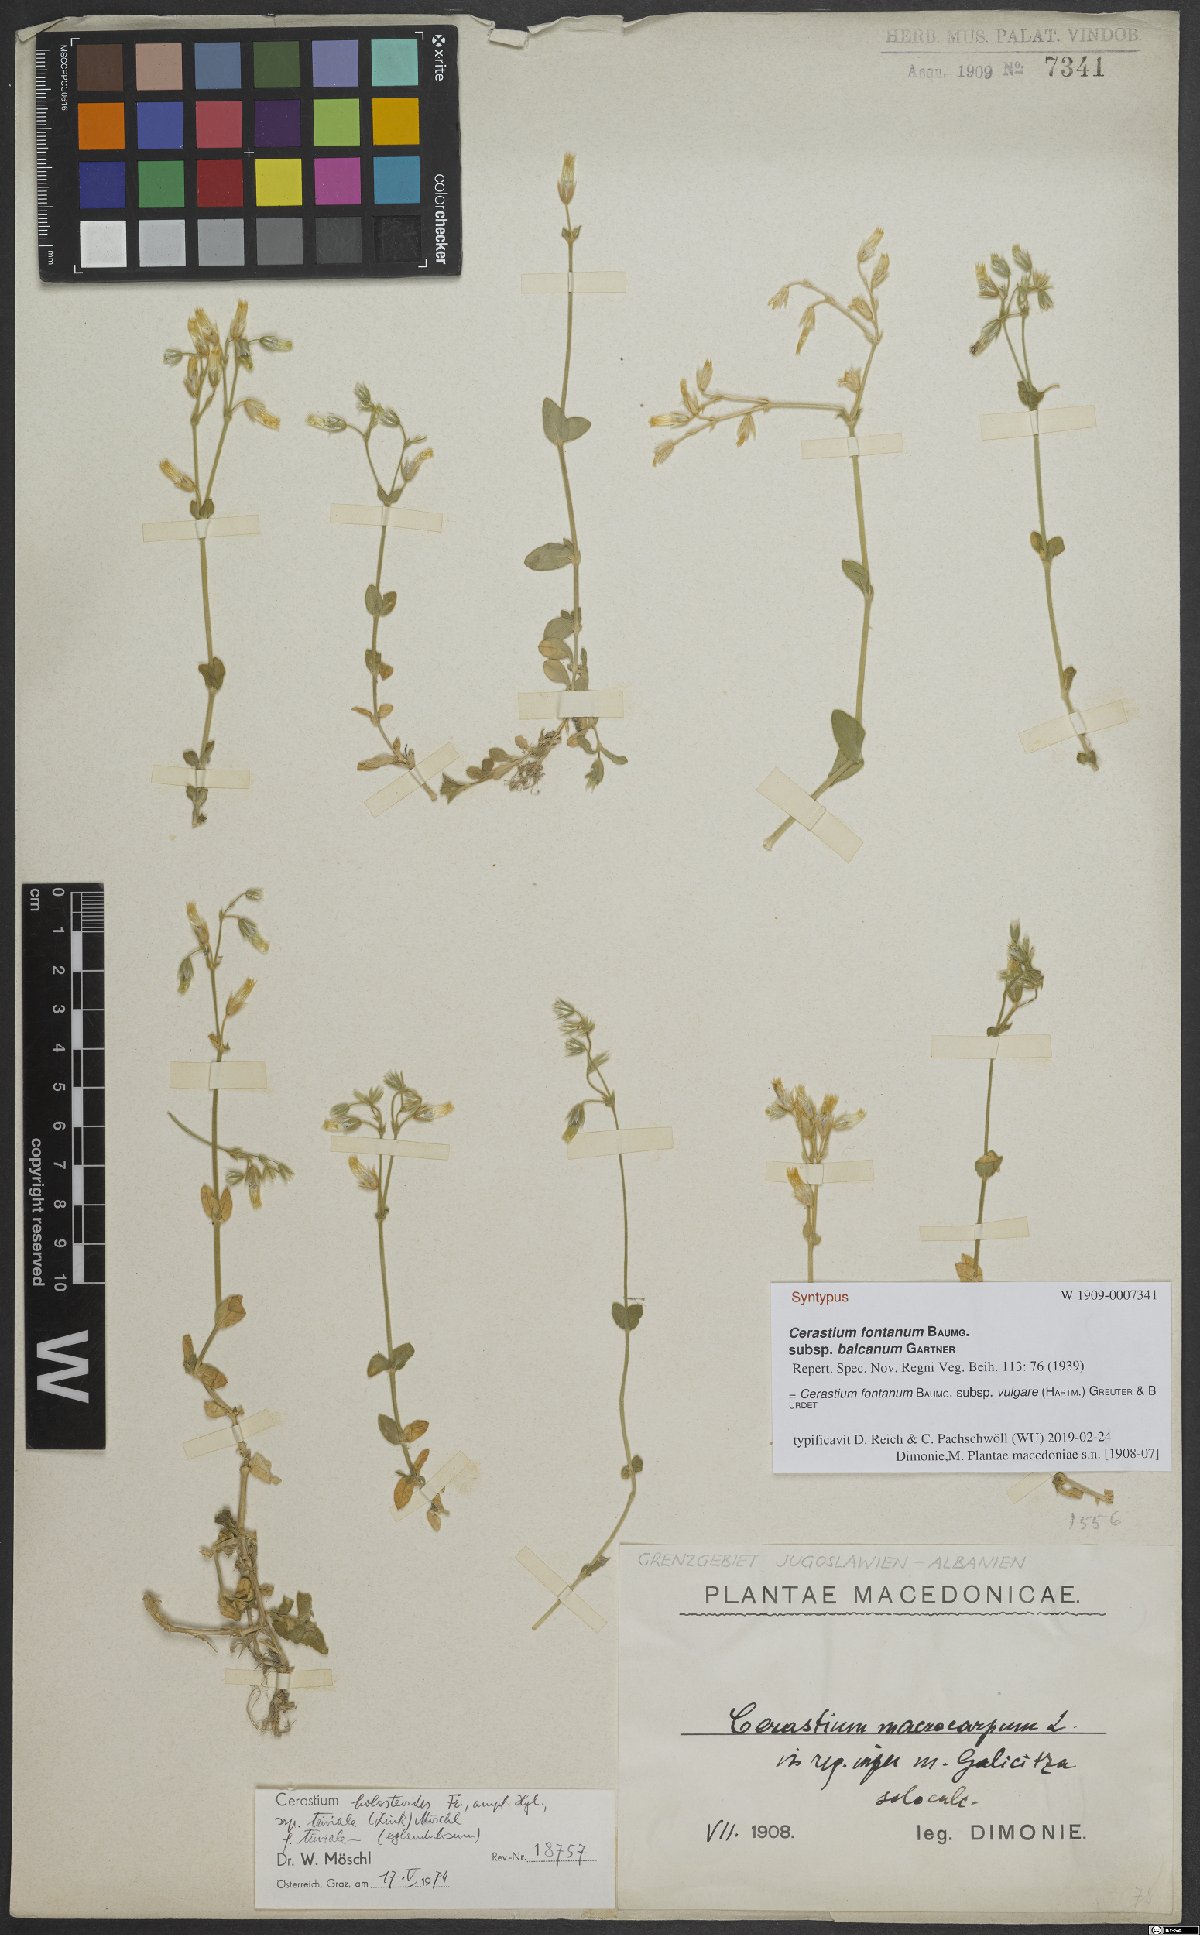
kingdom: Plantae
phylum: Tracheophyta
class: Magnoliopsida
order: Caryophyllales
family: Caryophyllaceae
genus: Cerastium
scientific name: Cerastium holosteoides
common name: Big chickweed
